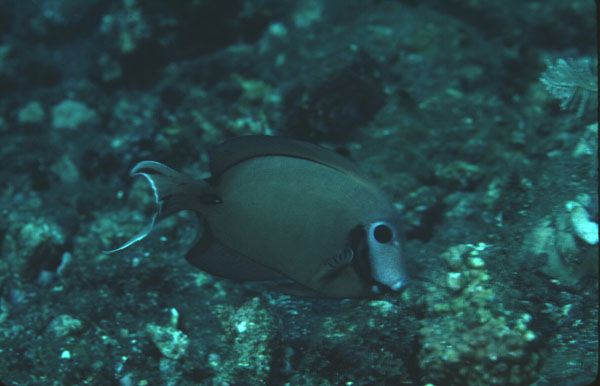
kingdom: Animalia
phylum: Chordata
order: Perciformes
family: Acanthuridae
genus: Acanthurus
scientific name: Acanthurus tristis
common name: Blackcheek surgeonfish
